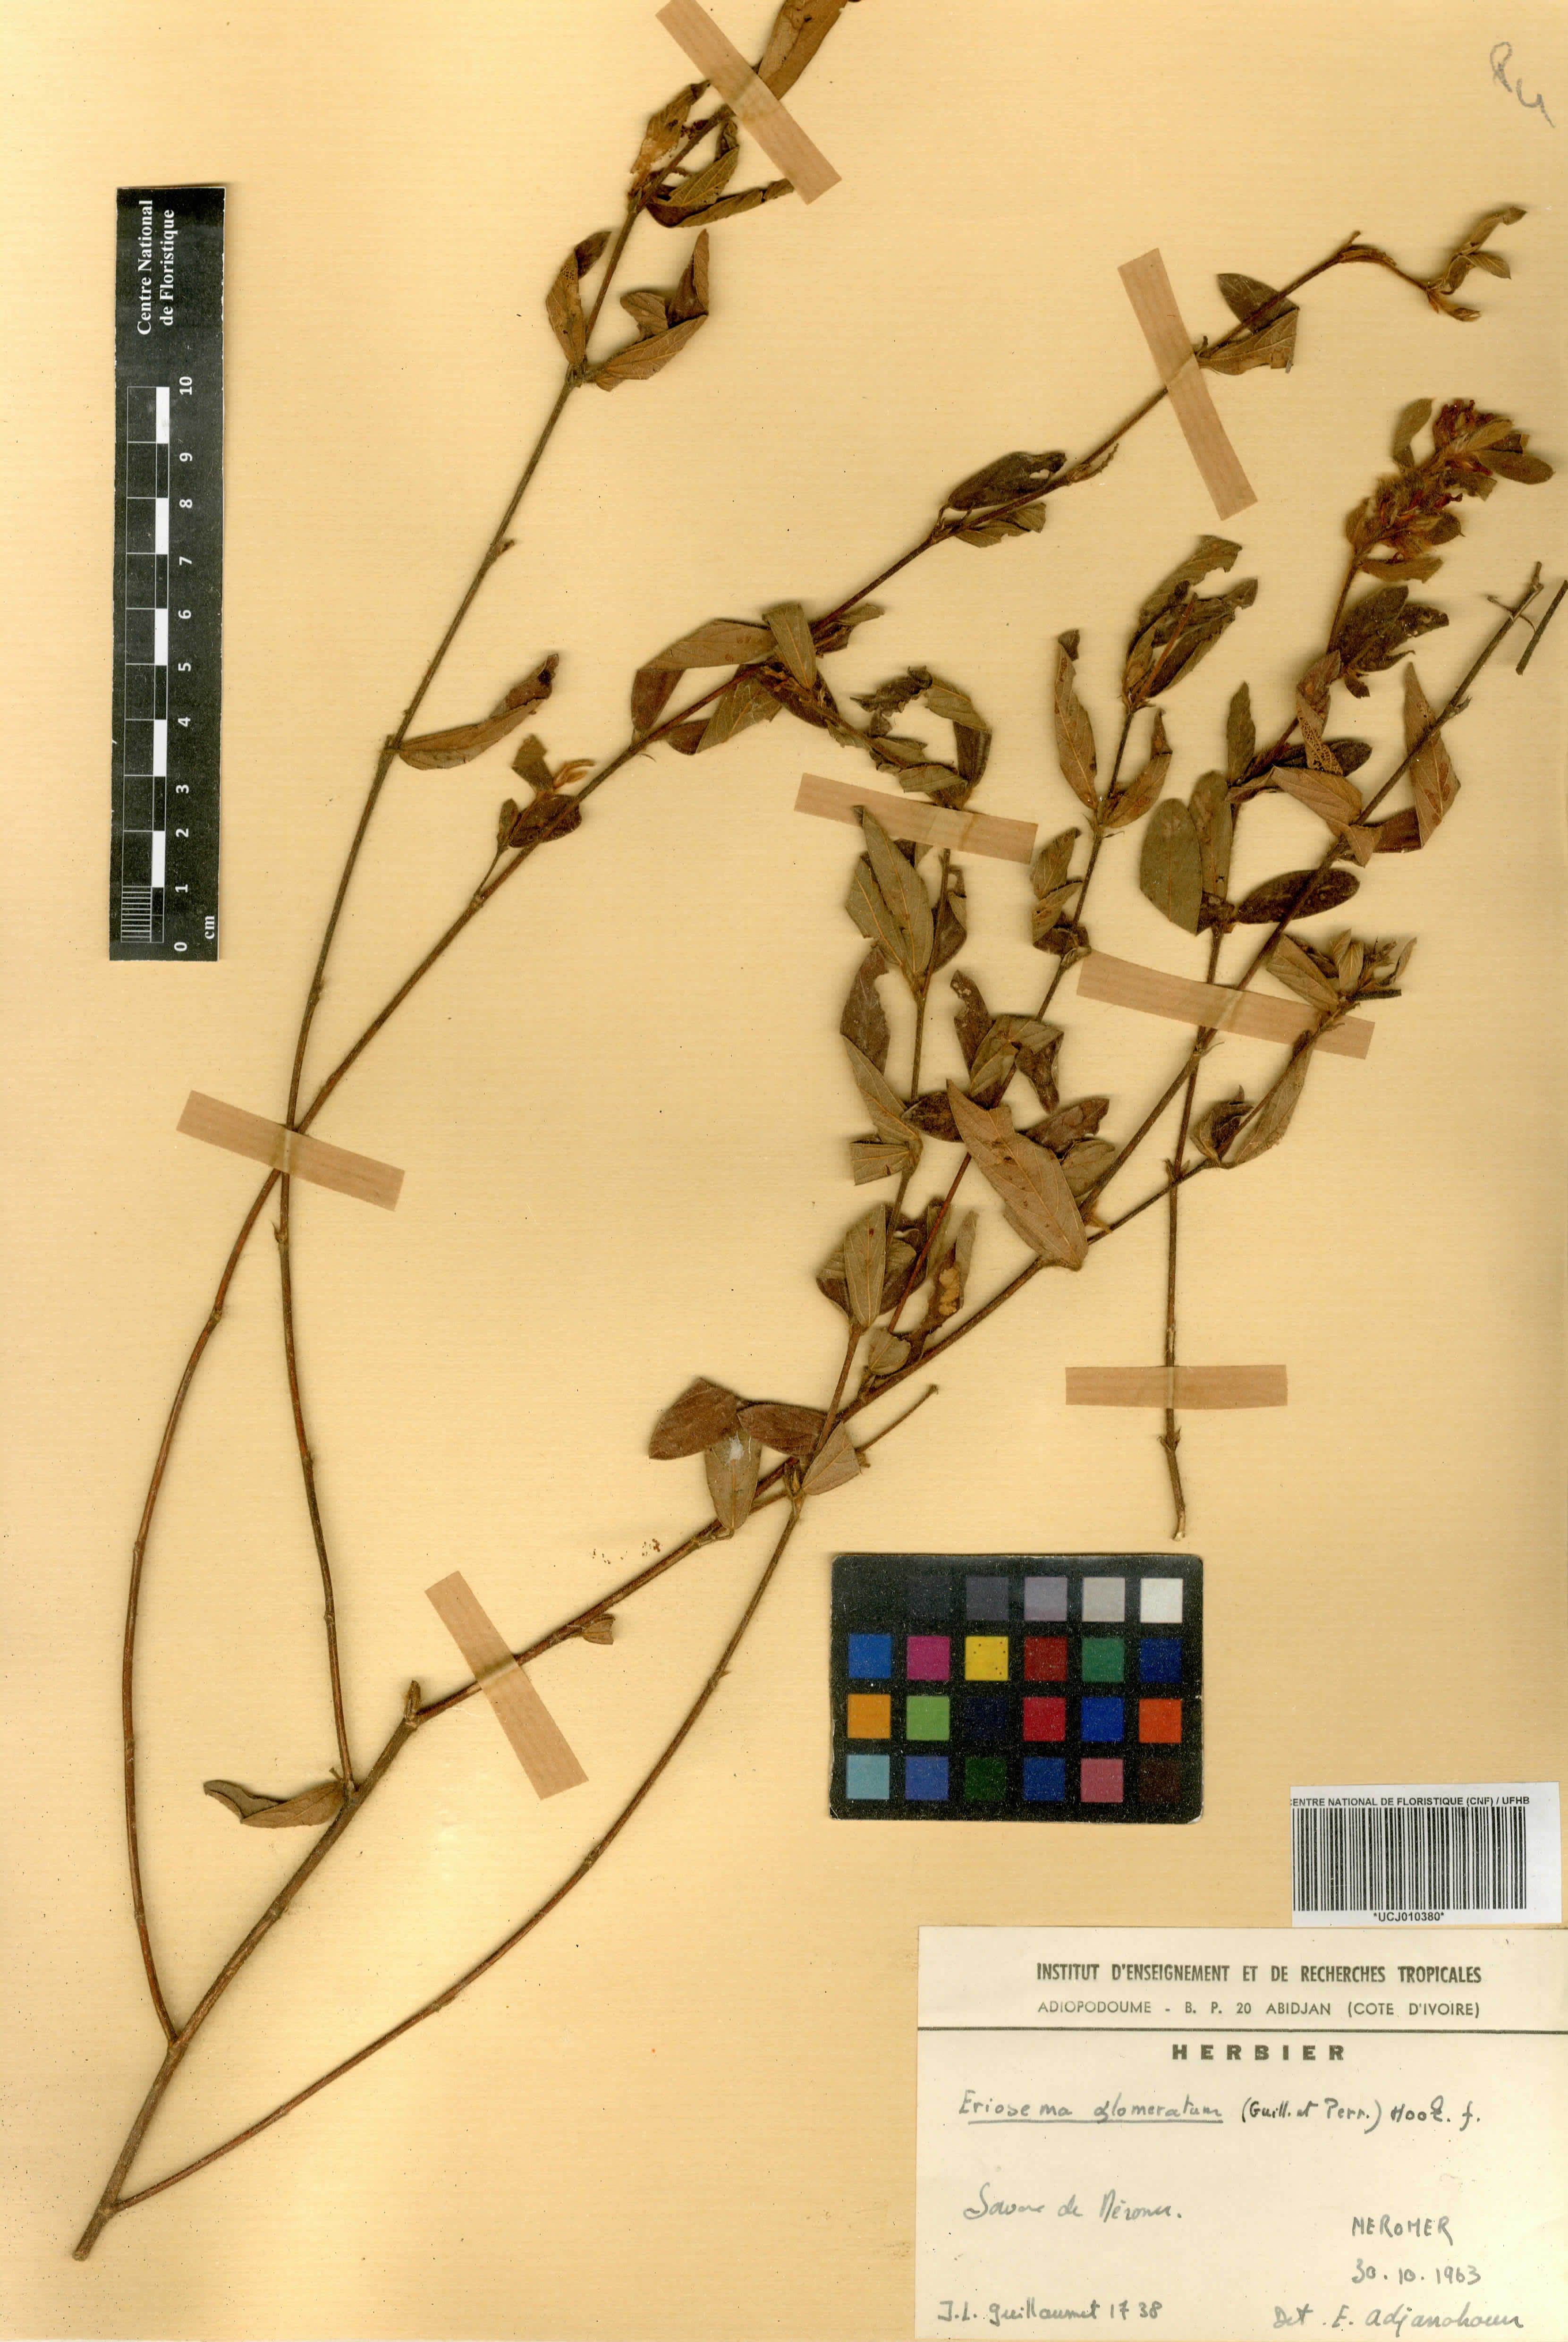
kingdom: Plantae
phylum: Tracheophyta
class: Magnoliopsida
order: Fabales
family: Fabaceae
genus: Eriosema
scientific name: Eriosema glomeratum
